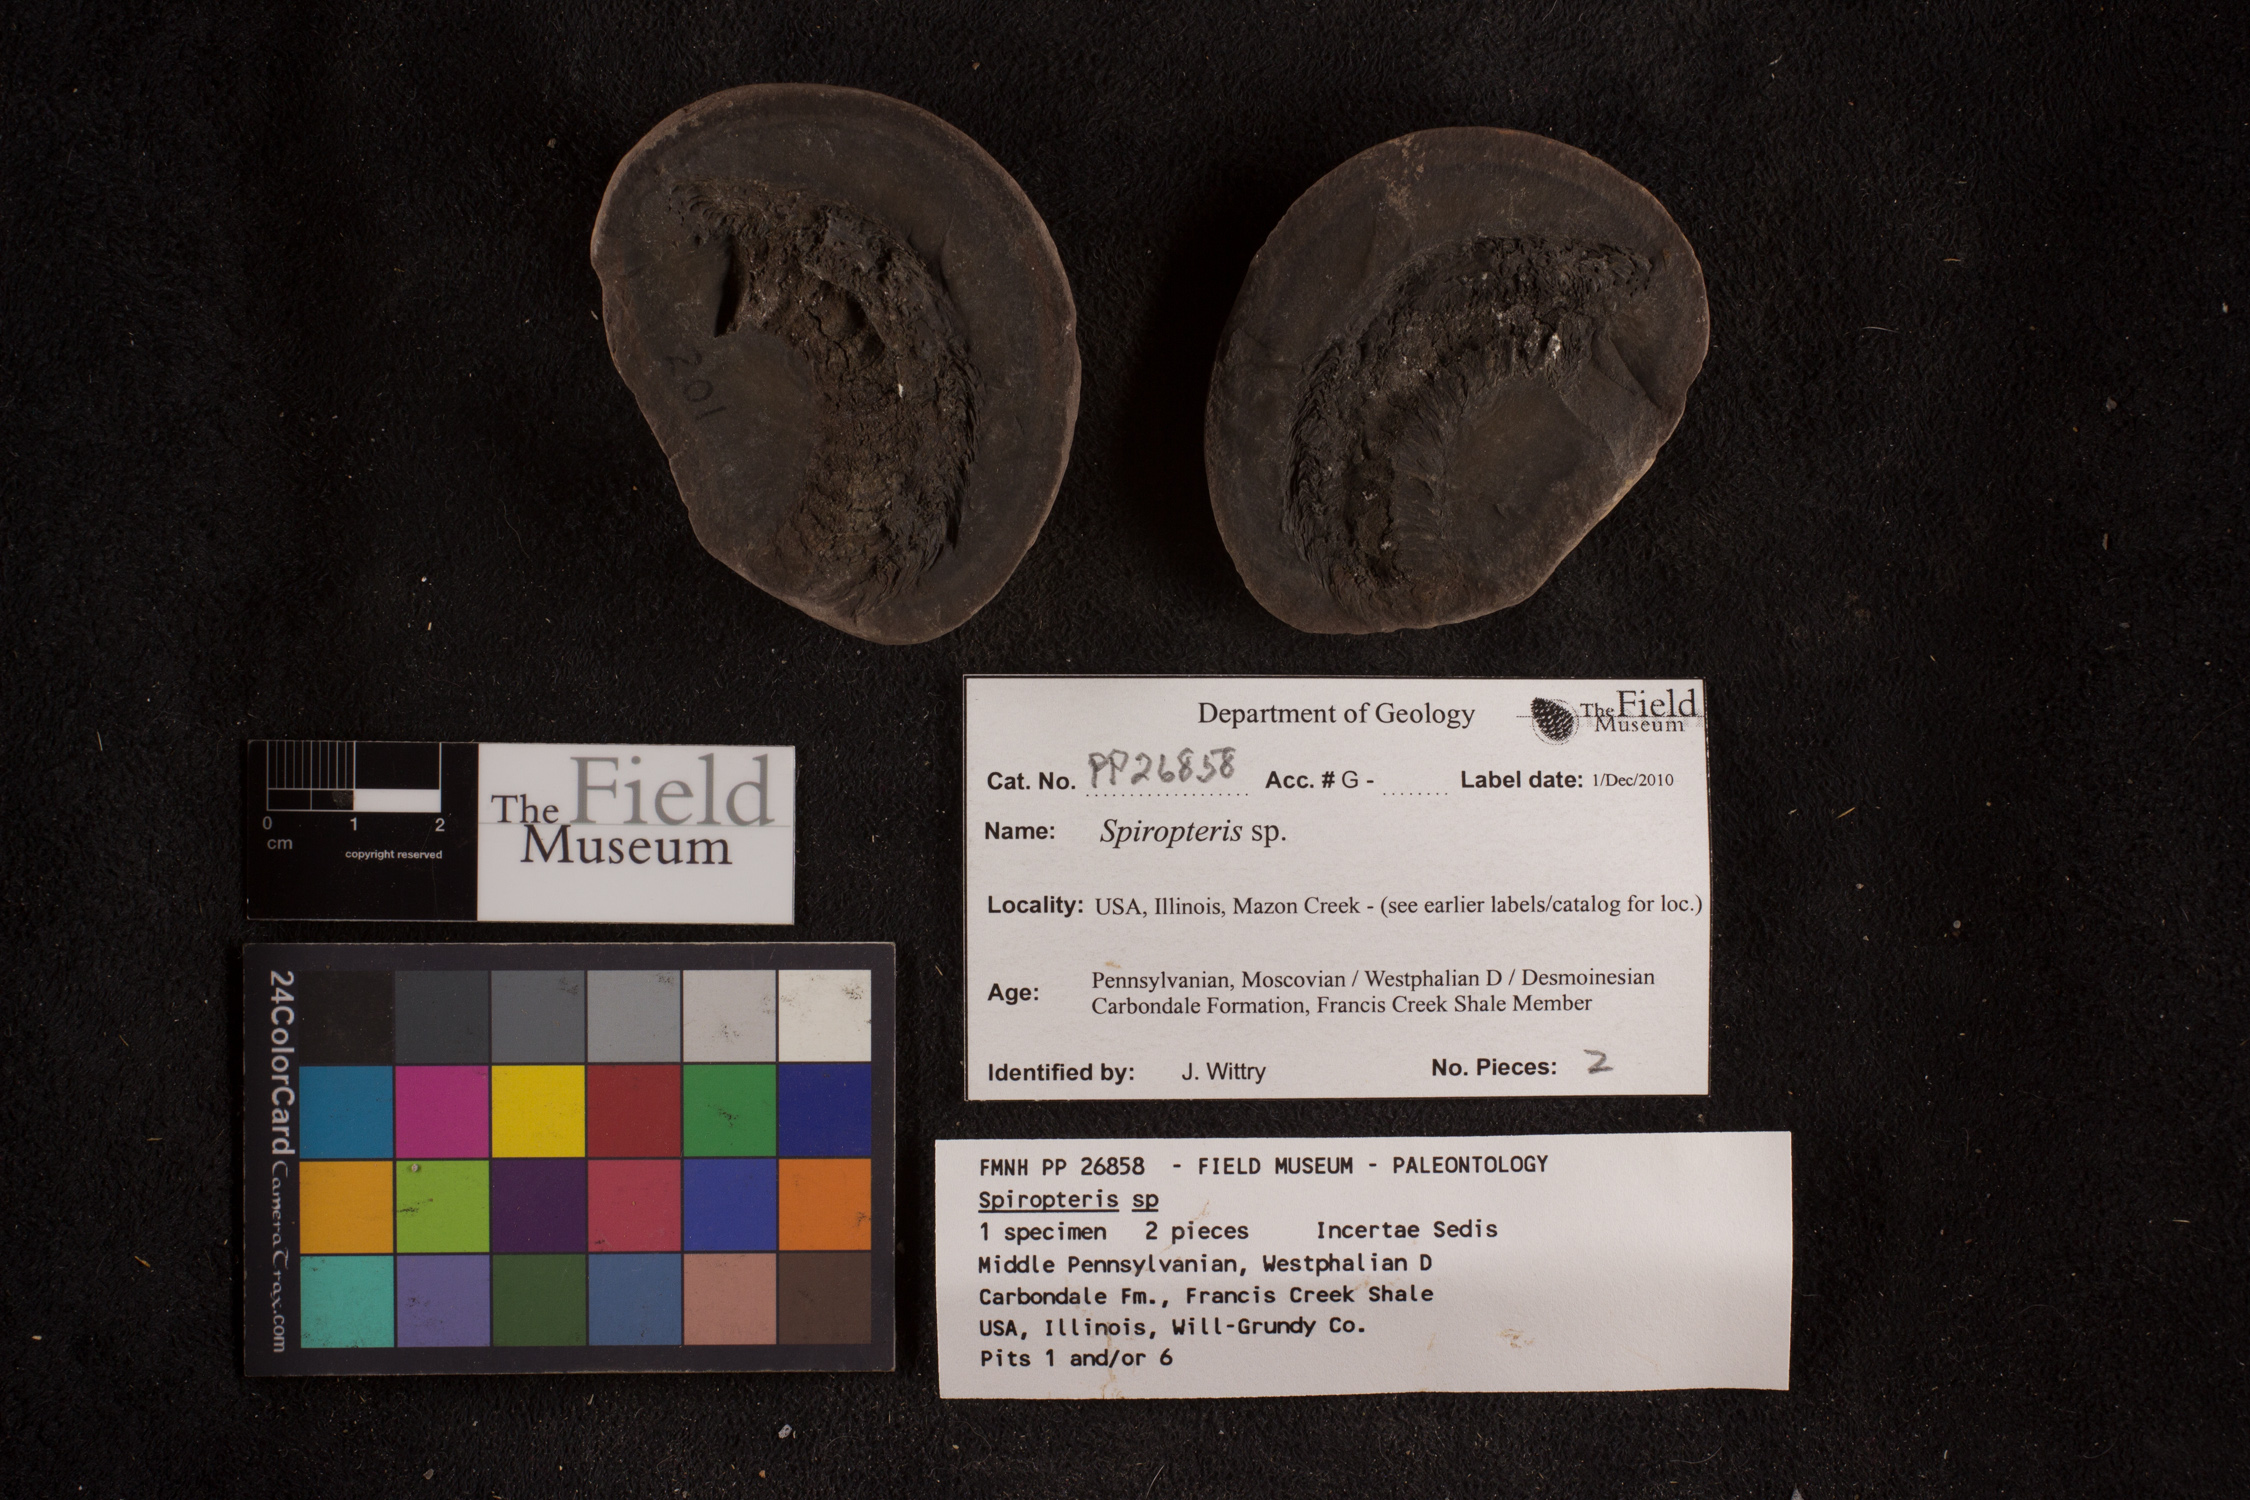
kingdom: Plantae
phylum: Tracheophyta
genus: Spiropteris
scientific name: Spiropteris
